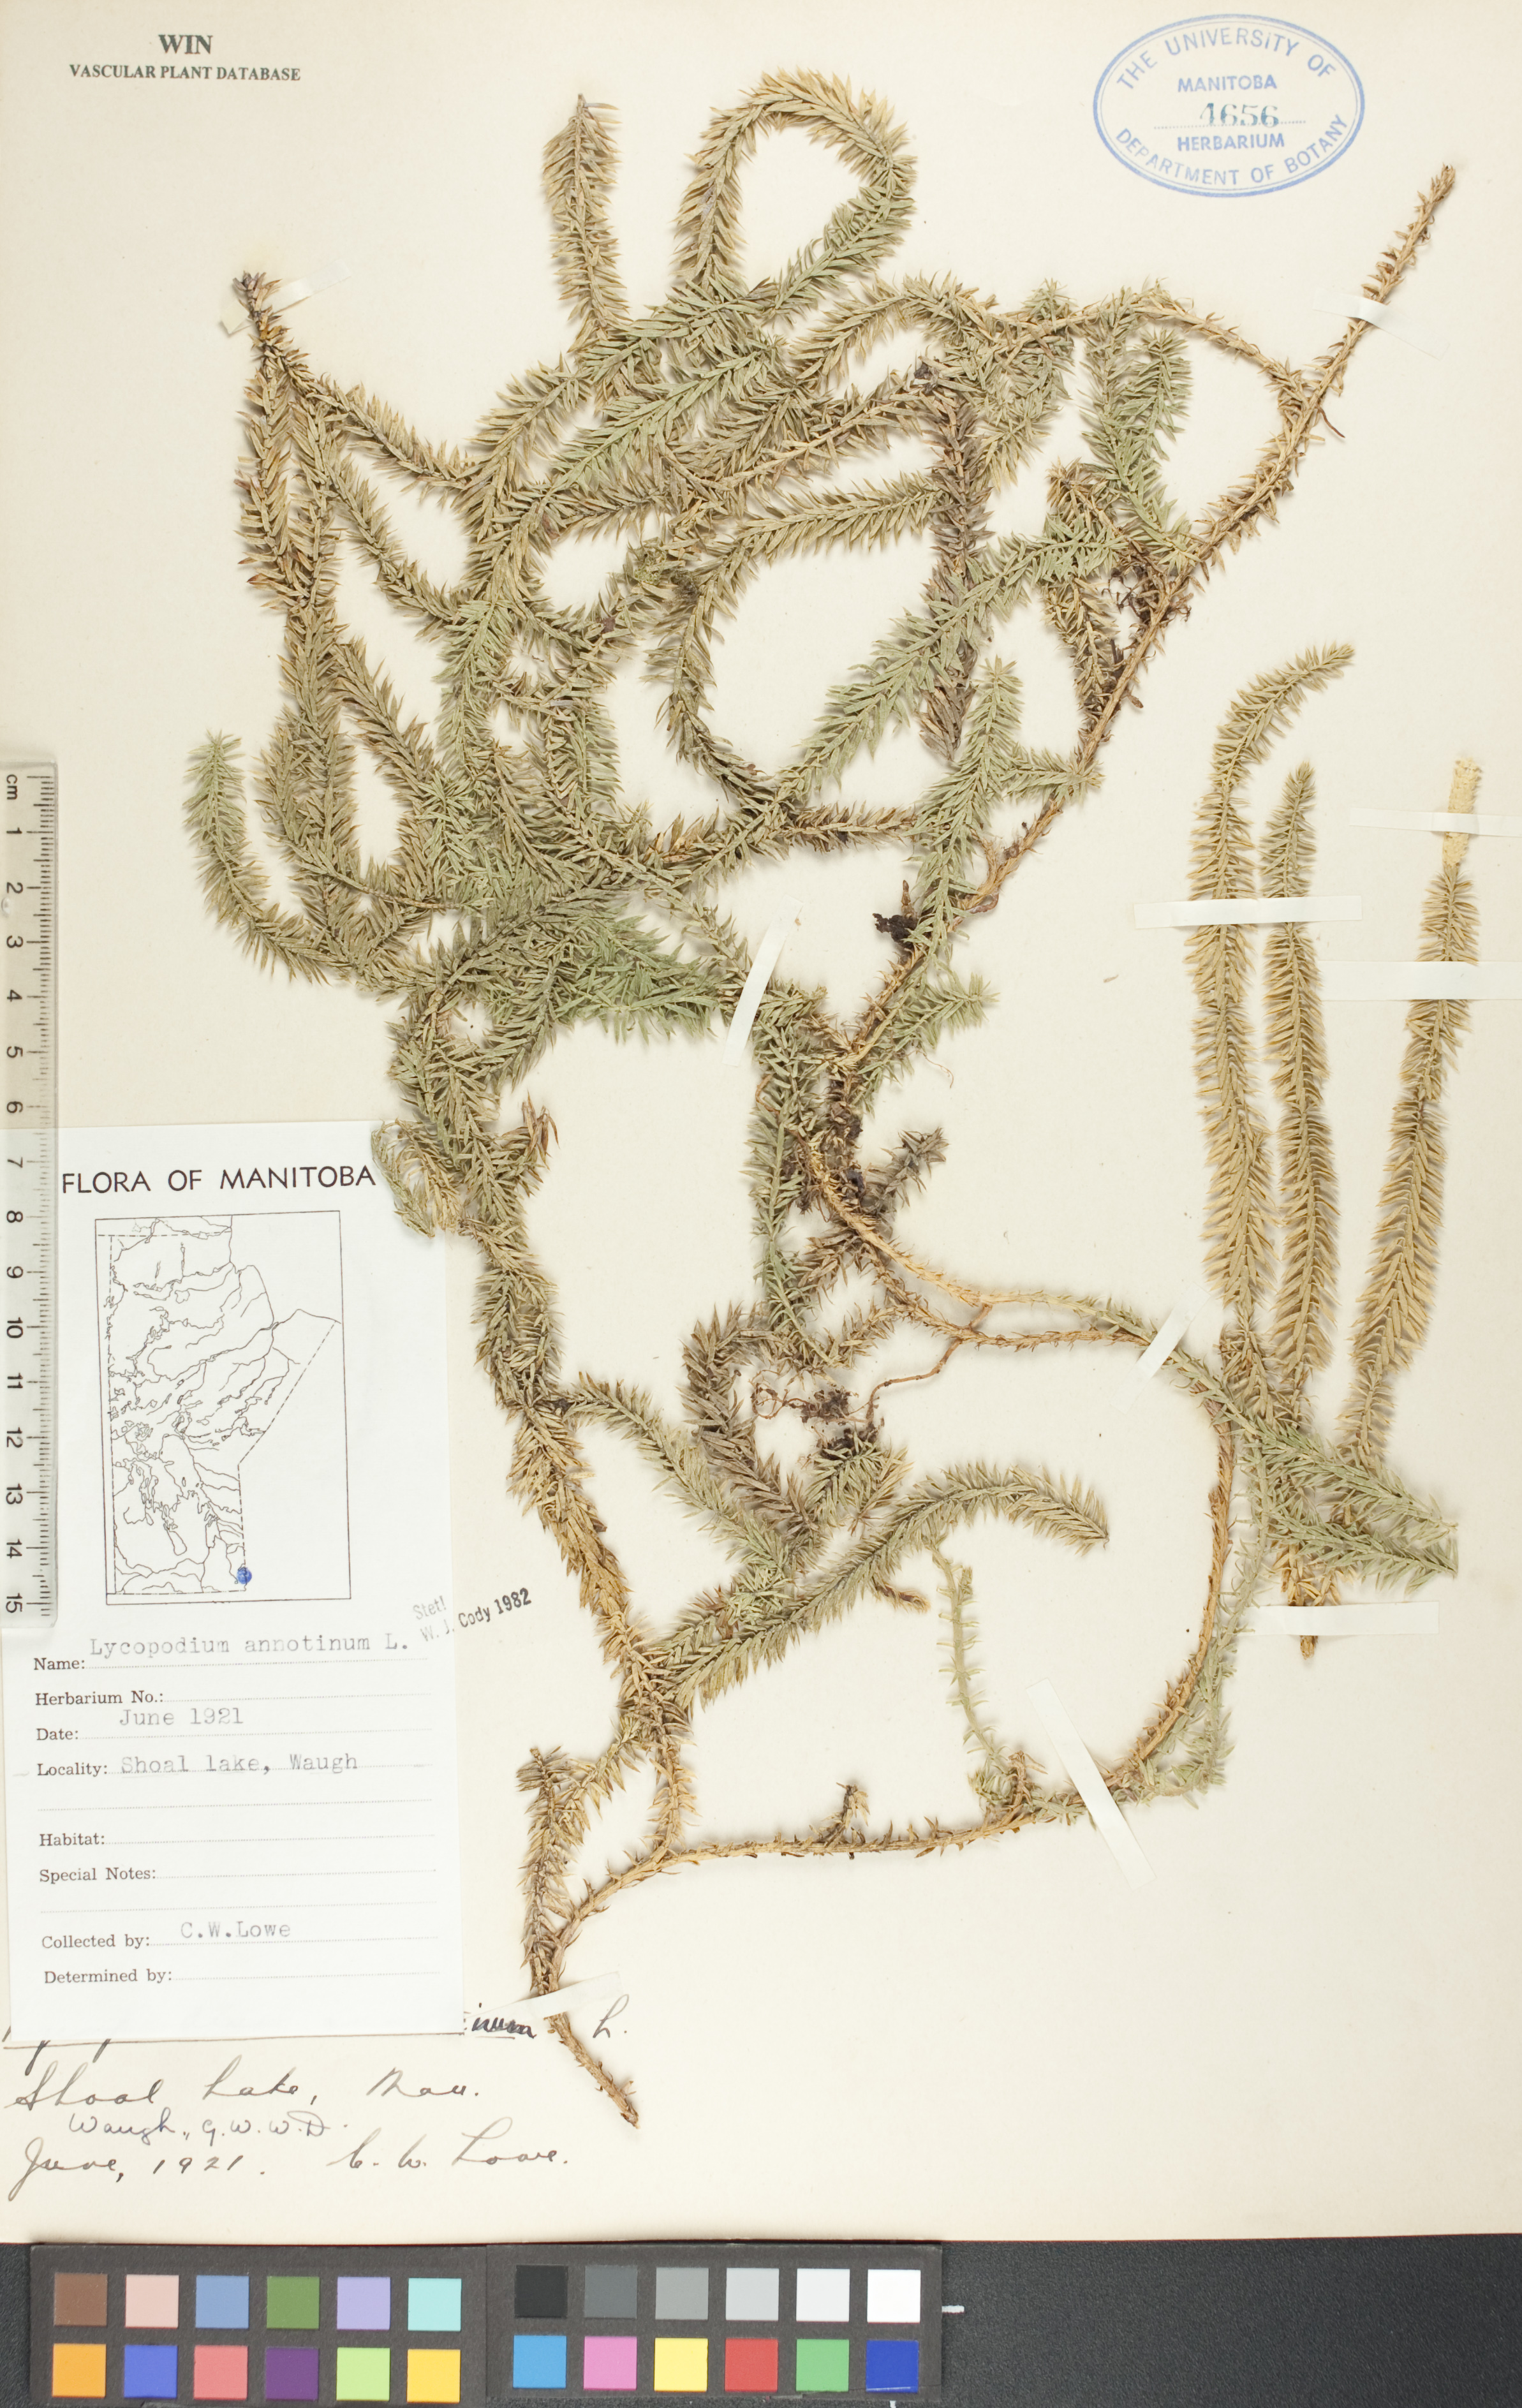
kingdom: Plantae
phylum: Tracheophyta
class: Lycopodiopsida
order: Lycopodiales
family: Lycopodiaceae
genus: Spinulum
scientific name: Spinulum annotinum
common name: Interrupted club-moss
